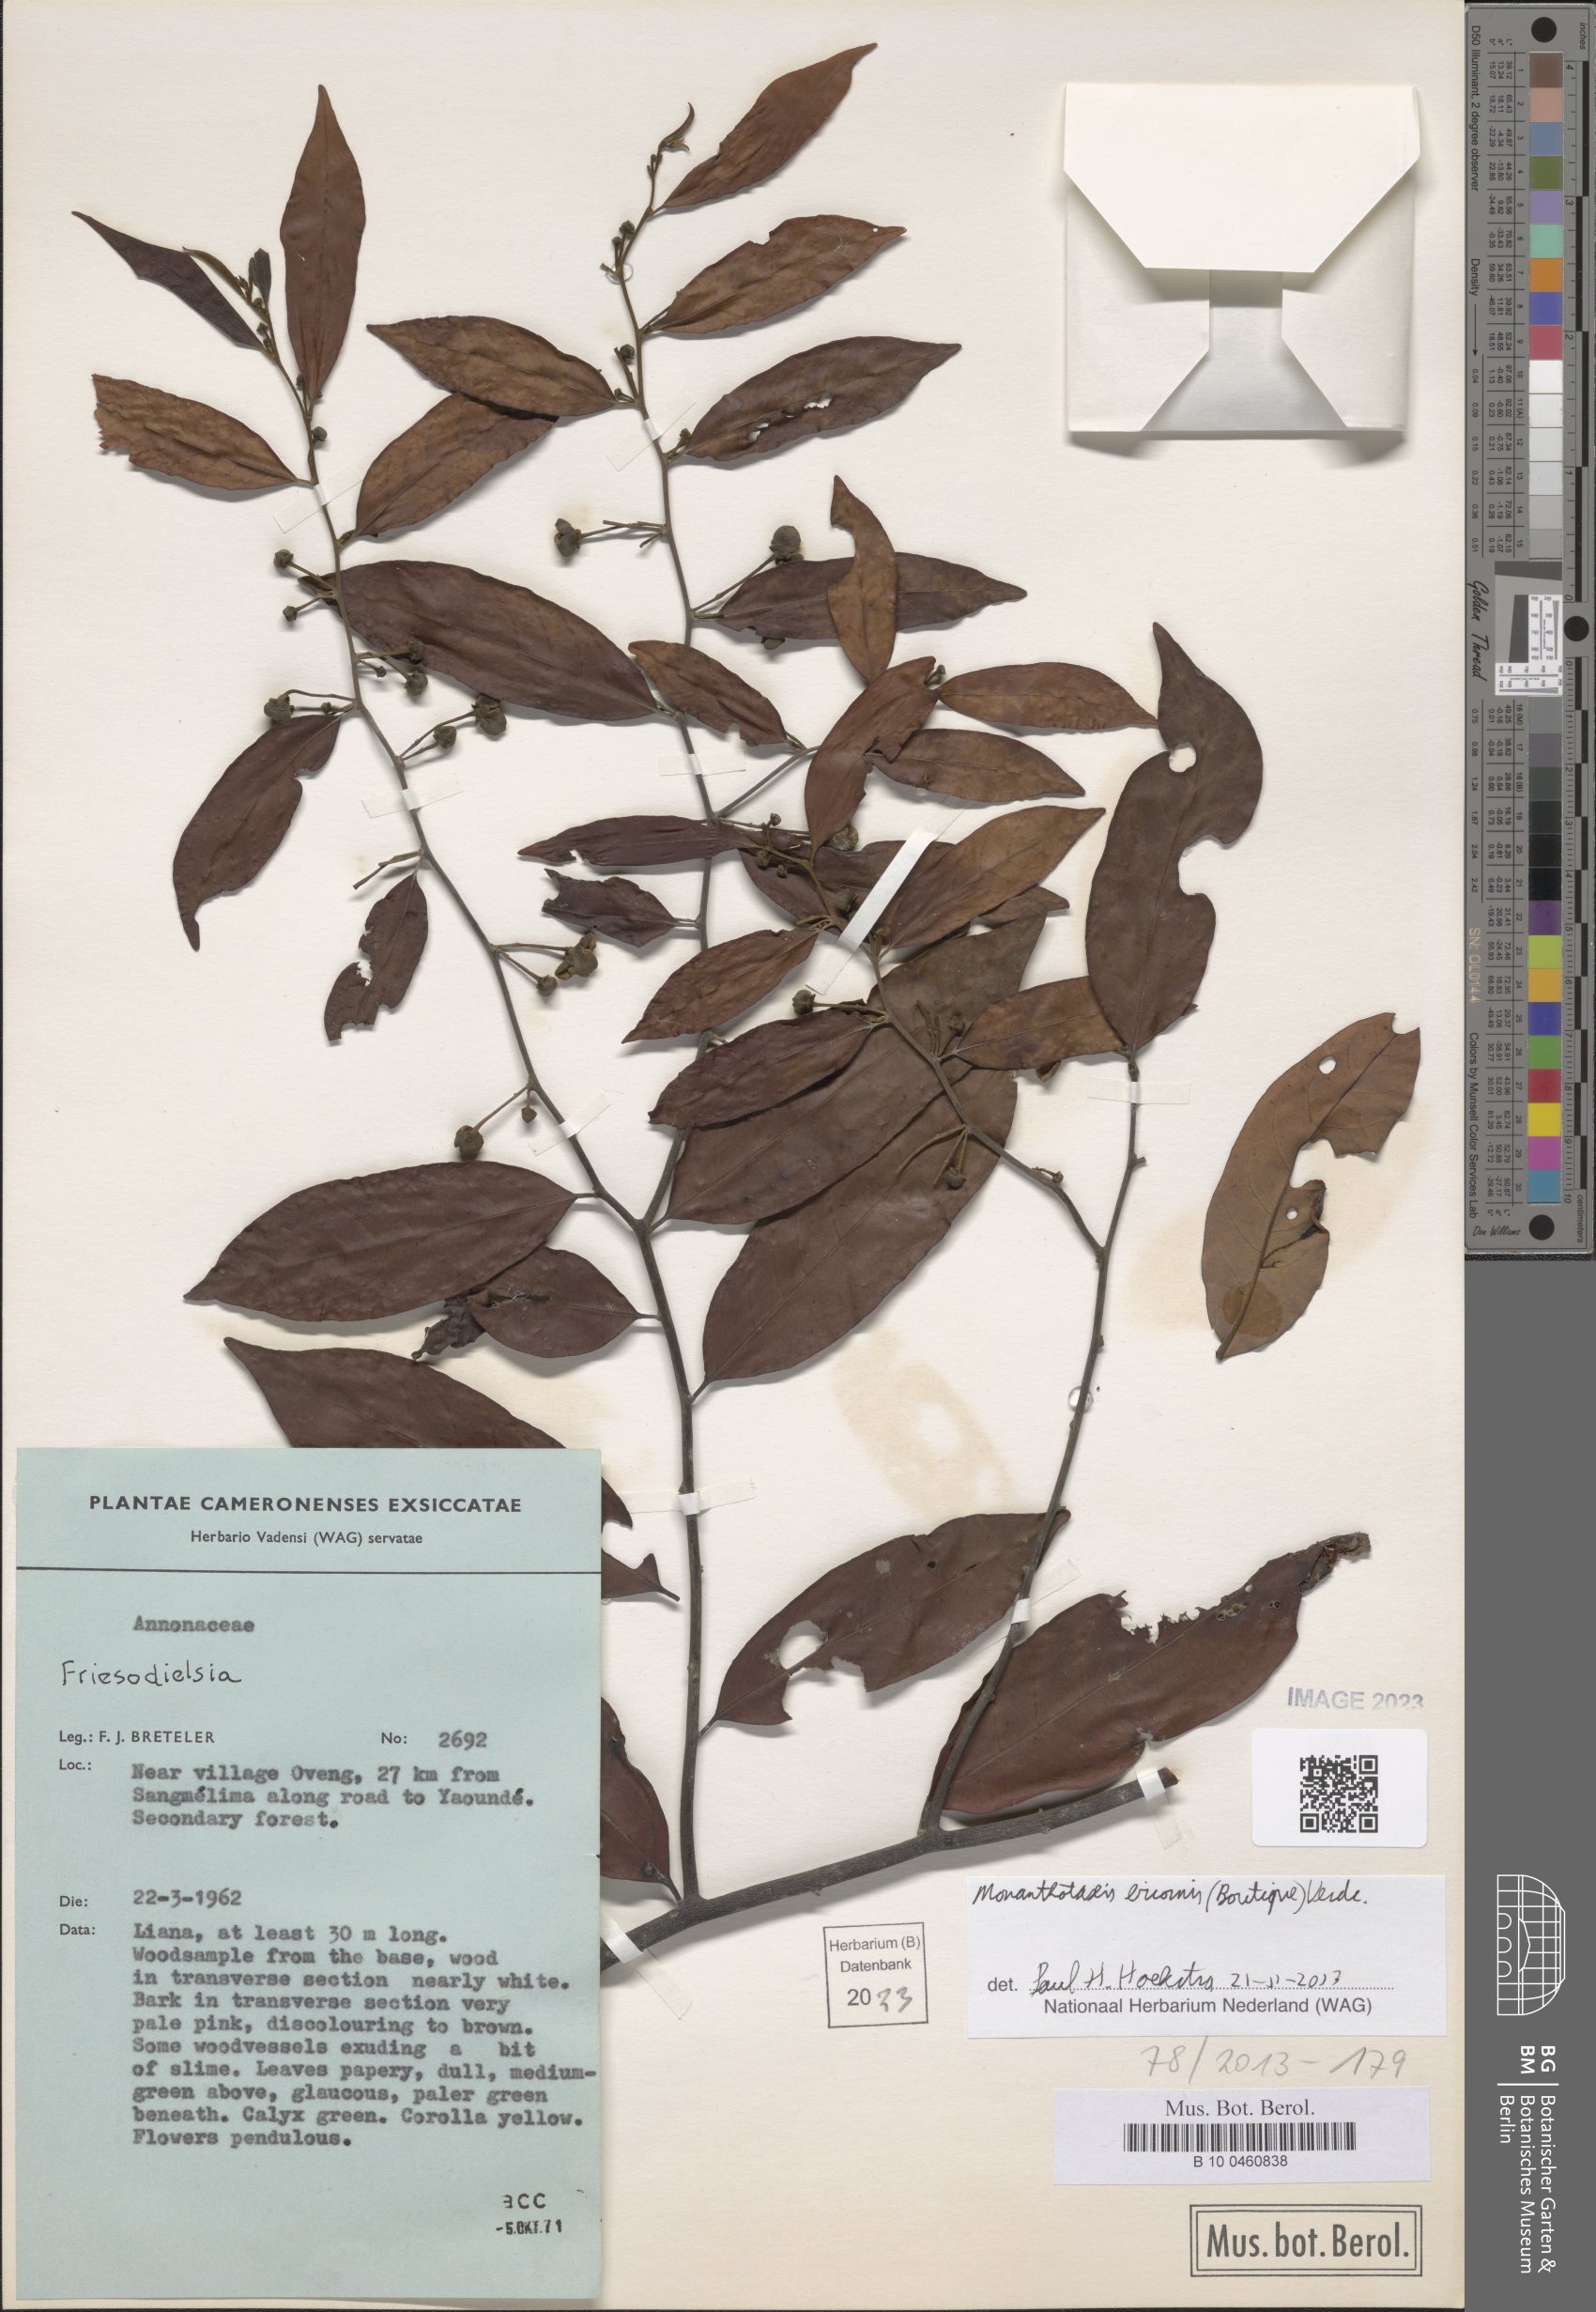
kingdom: Plantae
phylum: Tracheophyta
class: Magnoliopsida
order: Magnoliales
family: Annonaceae
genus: Monanthotaxis
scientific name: Monanthotaxis bicornis
